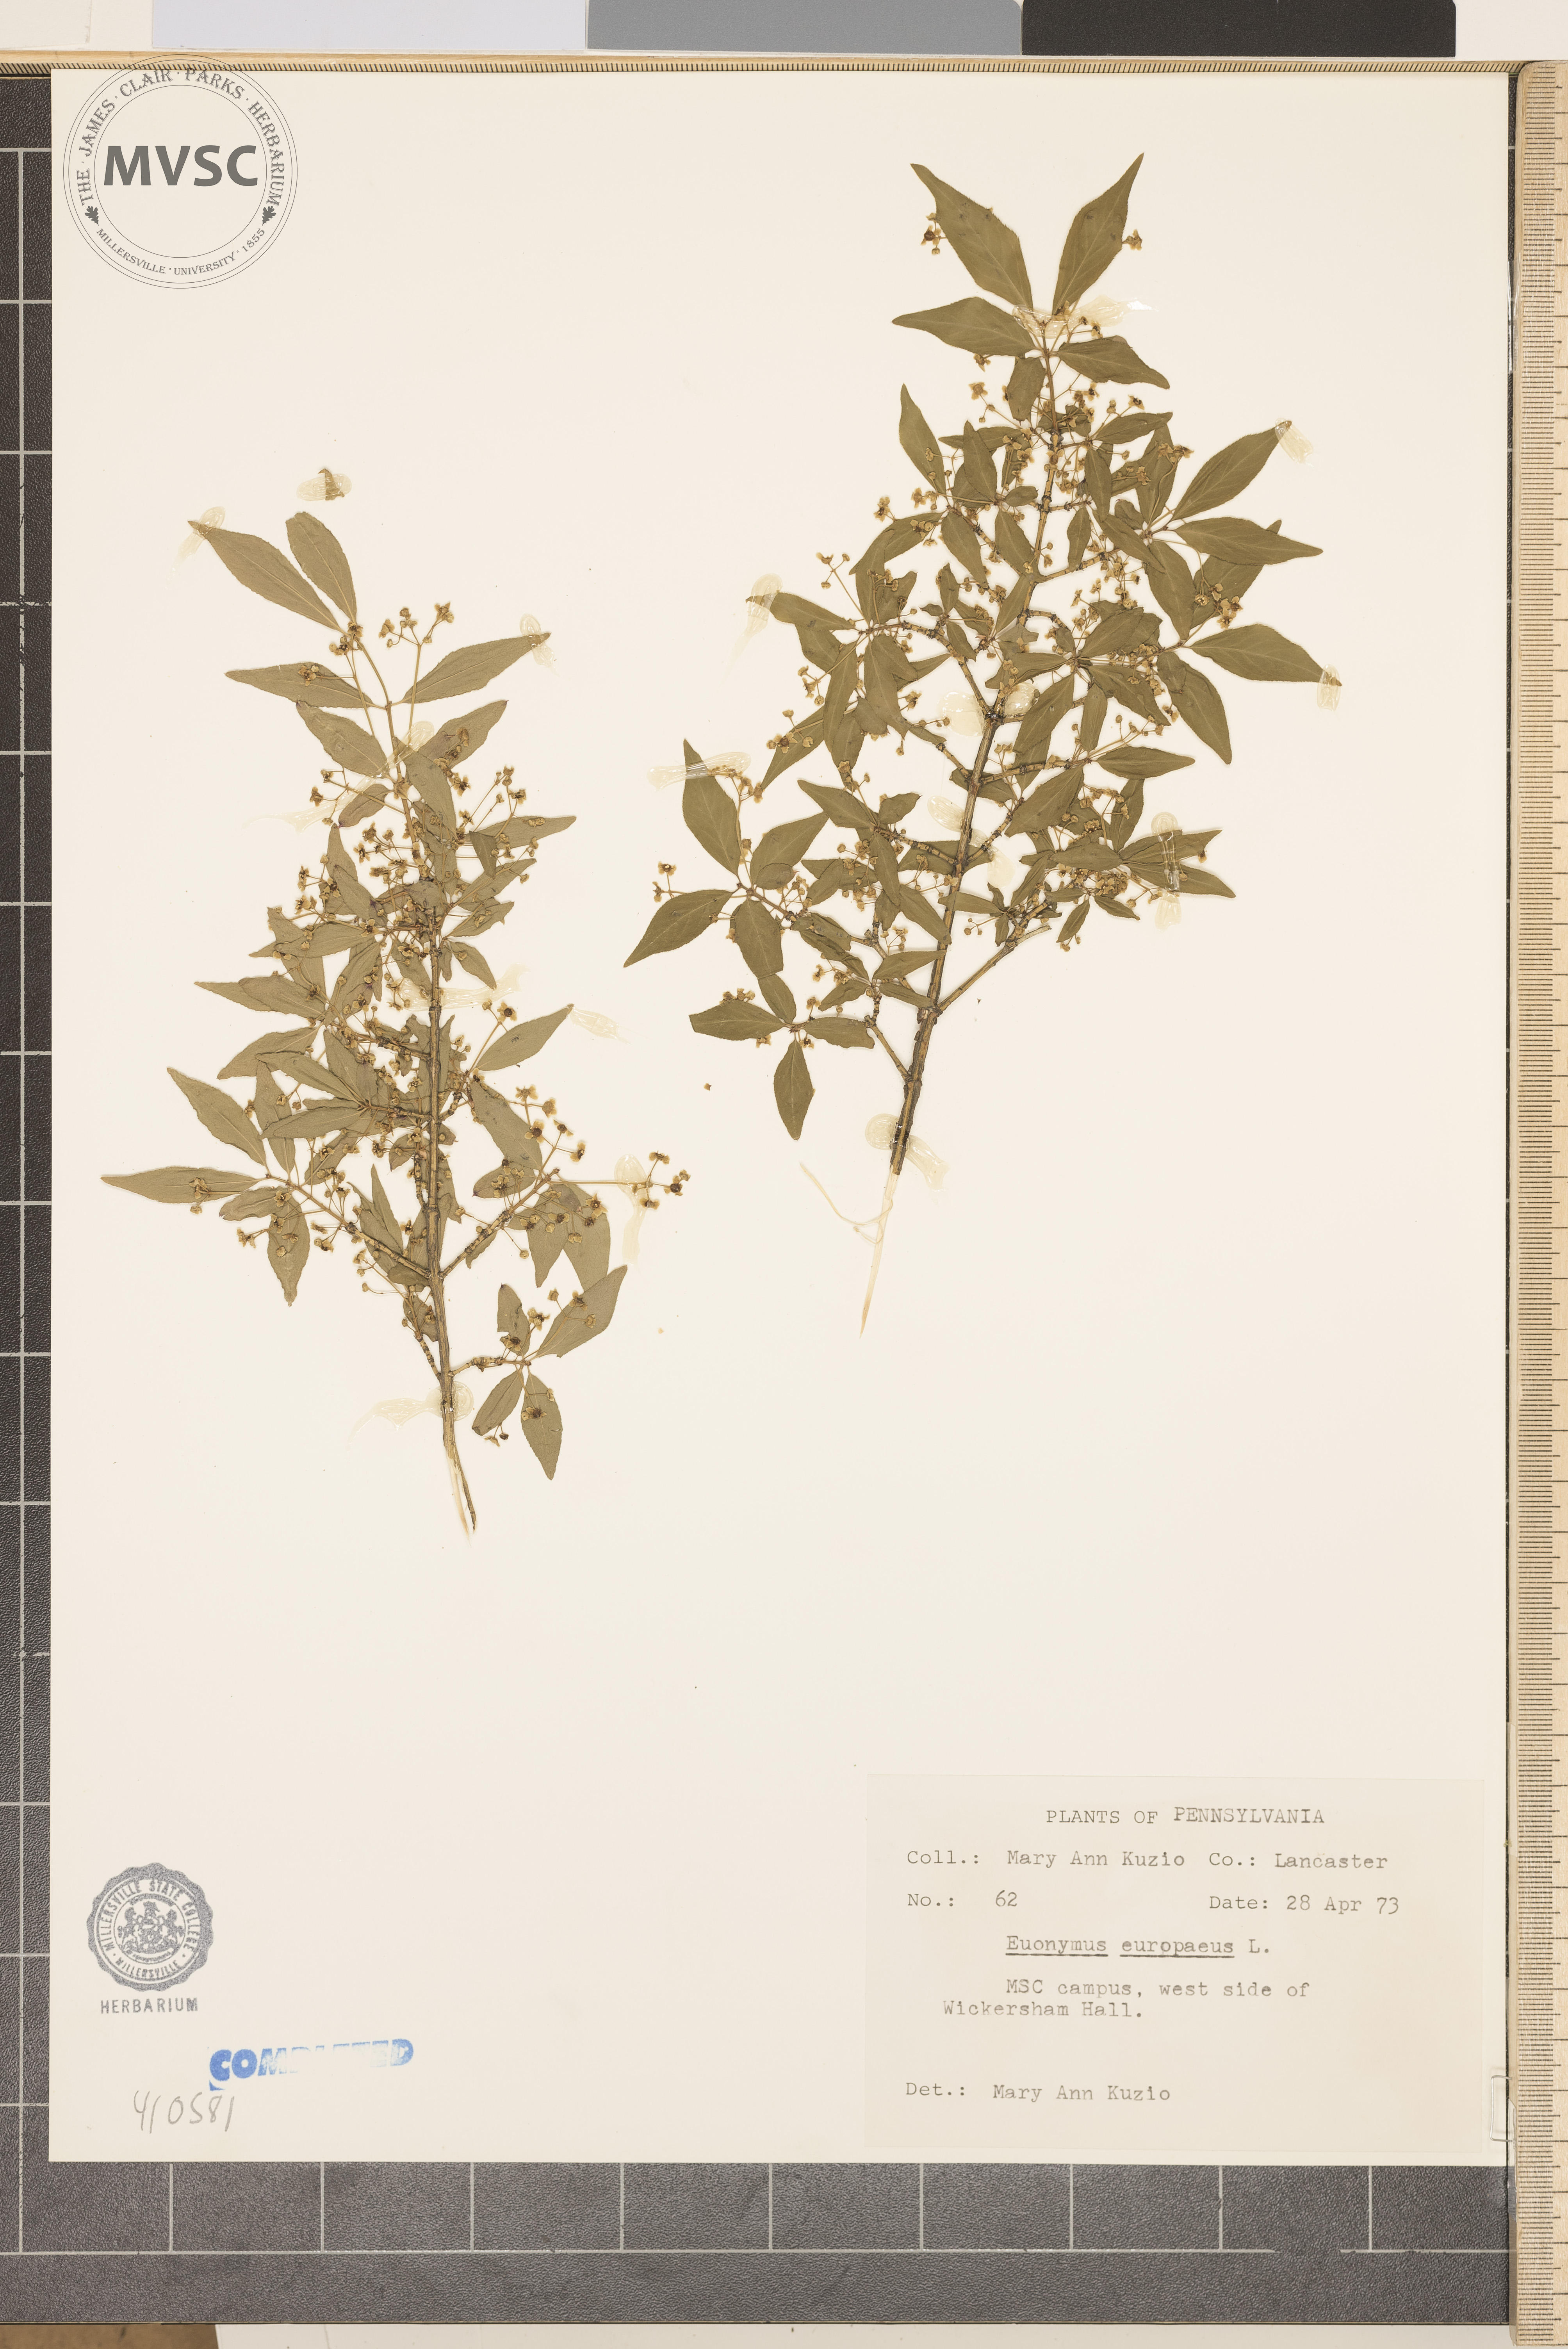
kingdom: Plantae
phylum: Tracheophyta
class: Magnoliopsida
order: Celastrales
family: Celastraceae
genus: Euonymus
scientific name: Euonymus europaeus
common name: European spindletree
